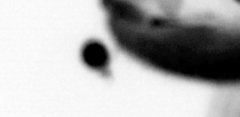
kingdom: Animalia
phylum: Annelida
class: Polychaeta
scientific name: Polychaeta
